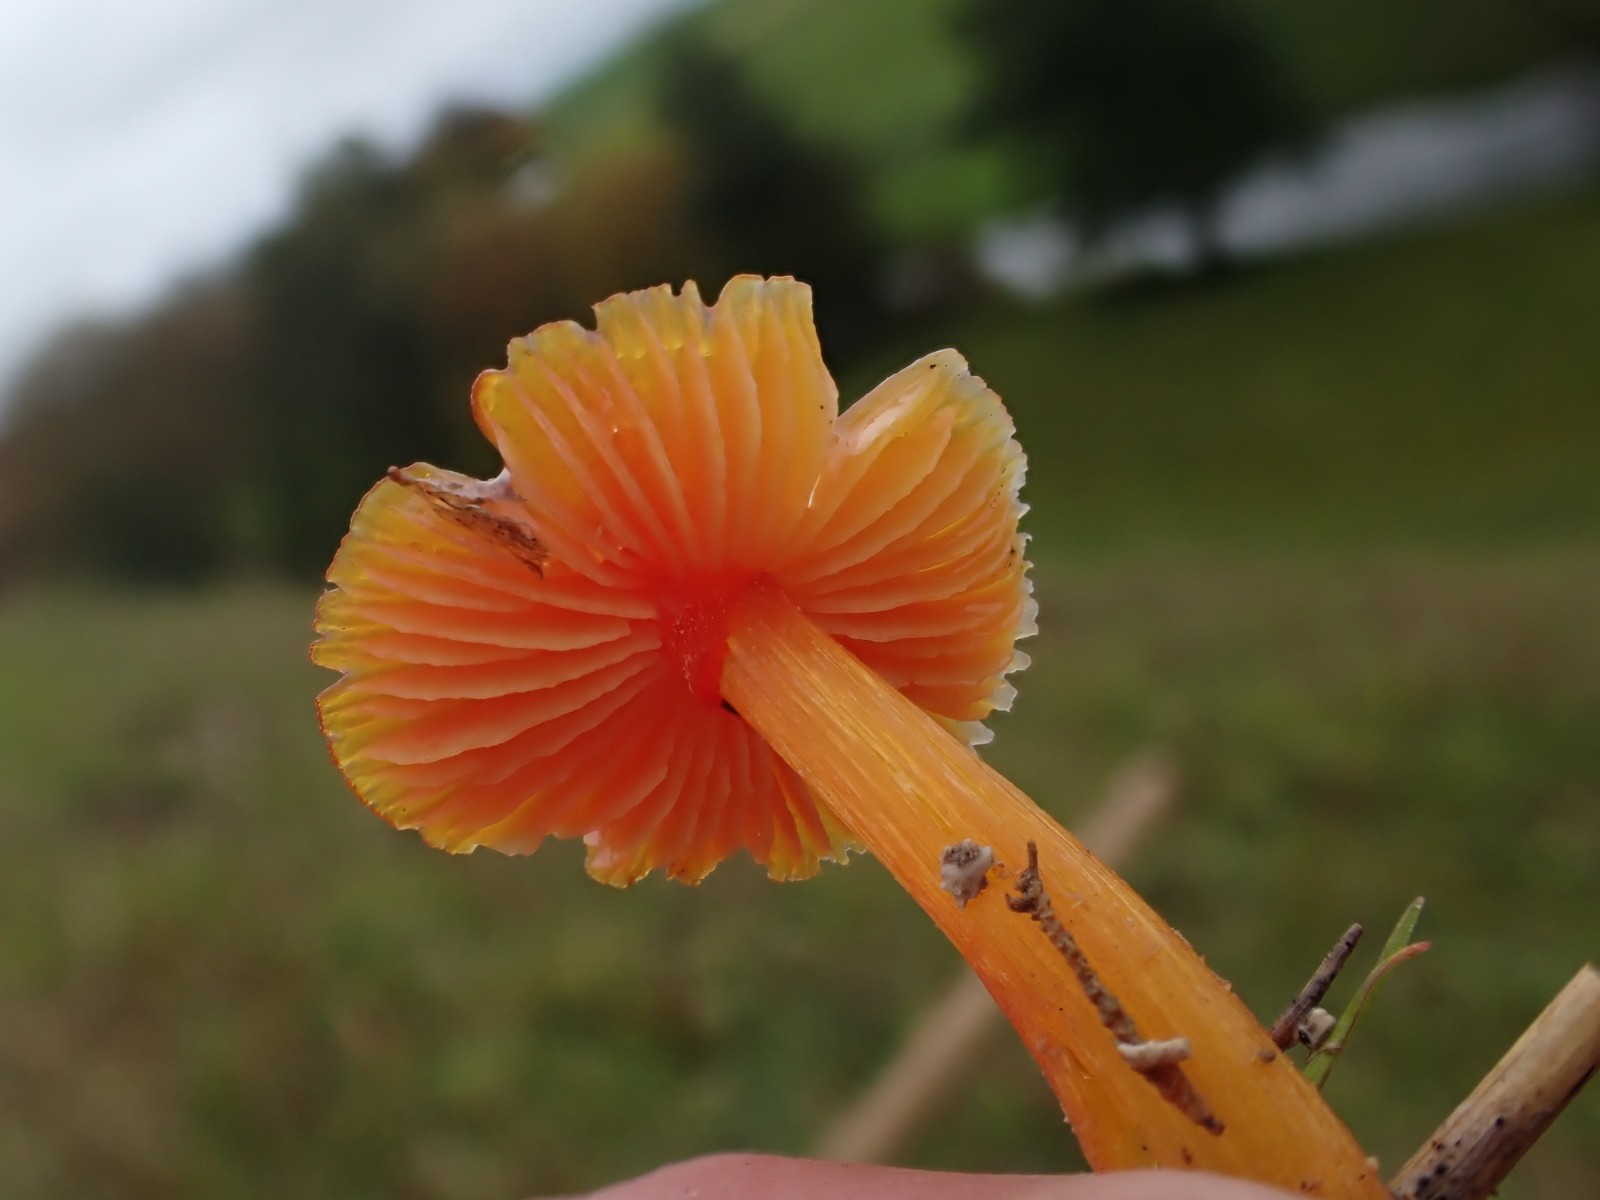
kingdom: Fungi
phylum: Basidiomycota
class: Agaricomycetes
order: Agaricales
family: Hygrophoraceae
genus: Hygrocybe
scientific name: Hygrocybe conica
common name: kegle-vokshat
